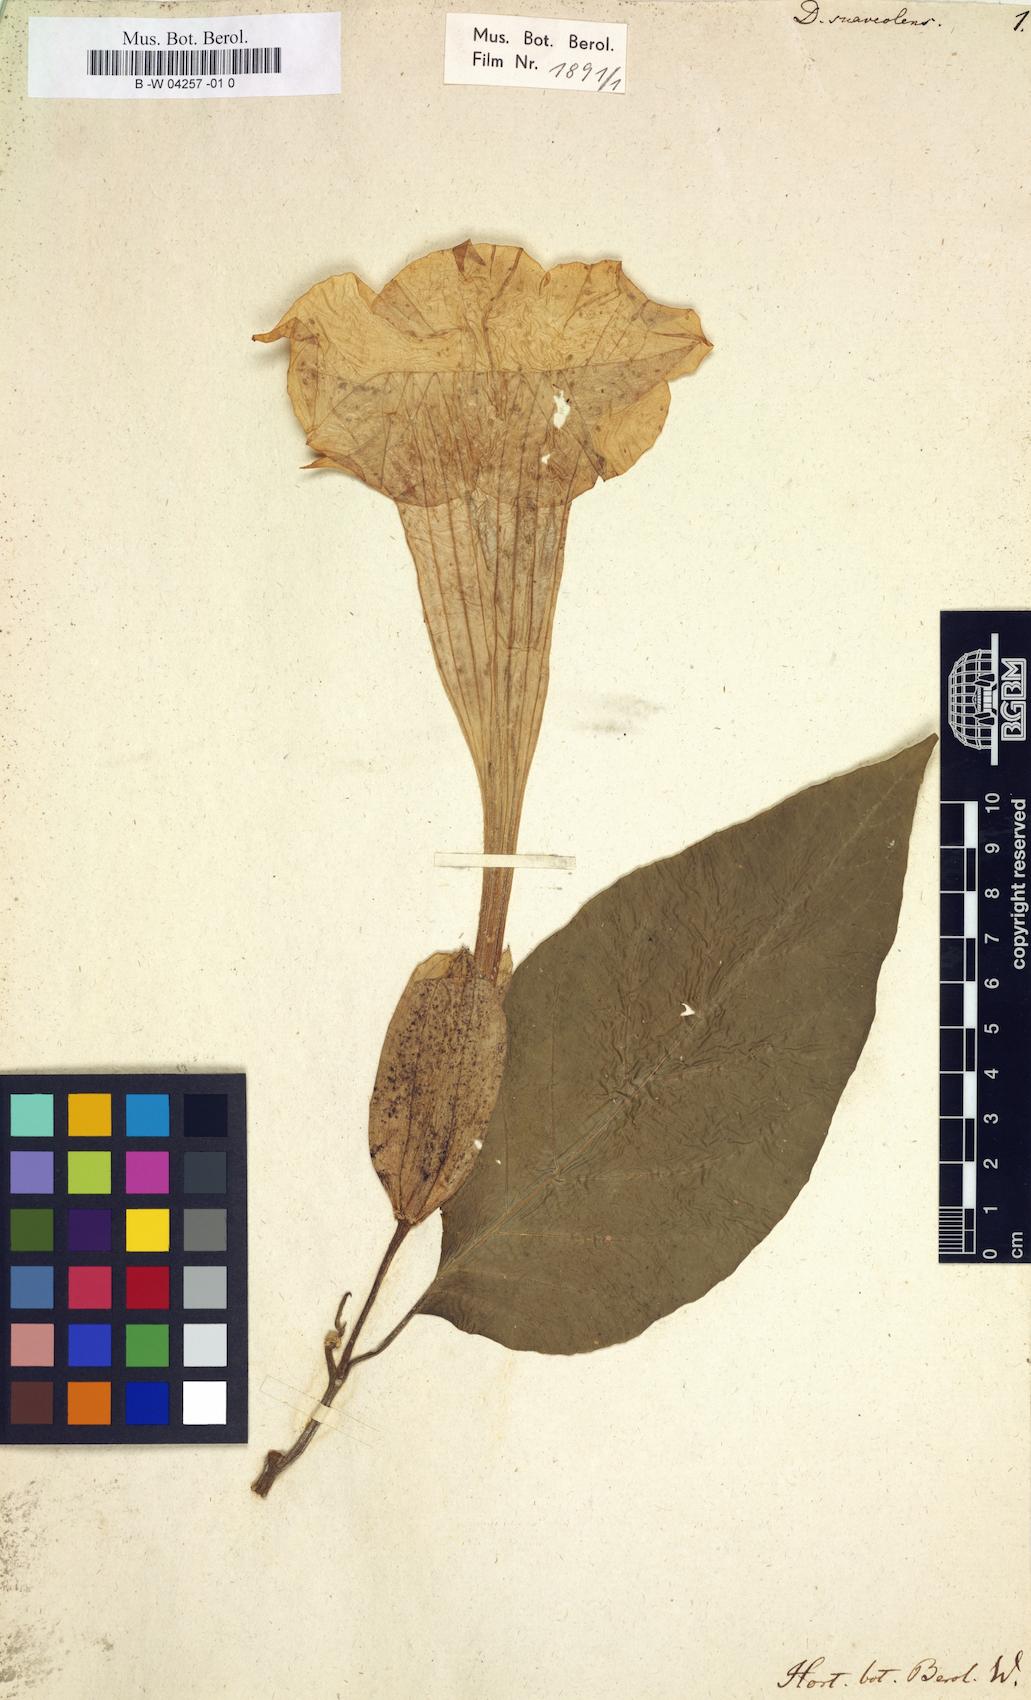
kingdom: Plantae
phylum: Tracheophyta
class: Magnoliopsida
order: Solanales
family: Solanaceae
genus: Brugmansia
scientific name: Brugmansia suaveolens
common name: Angel's tears
